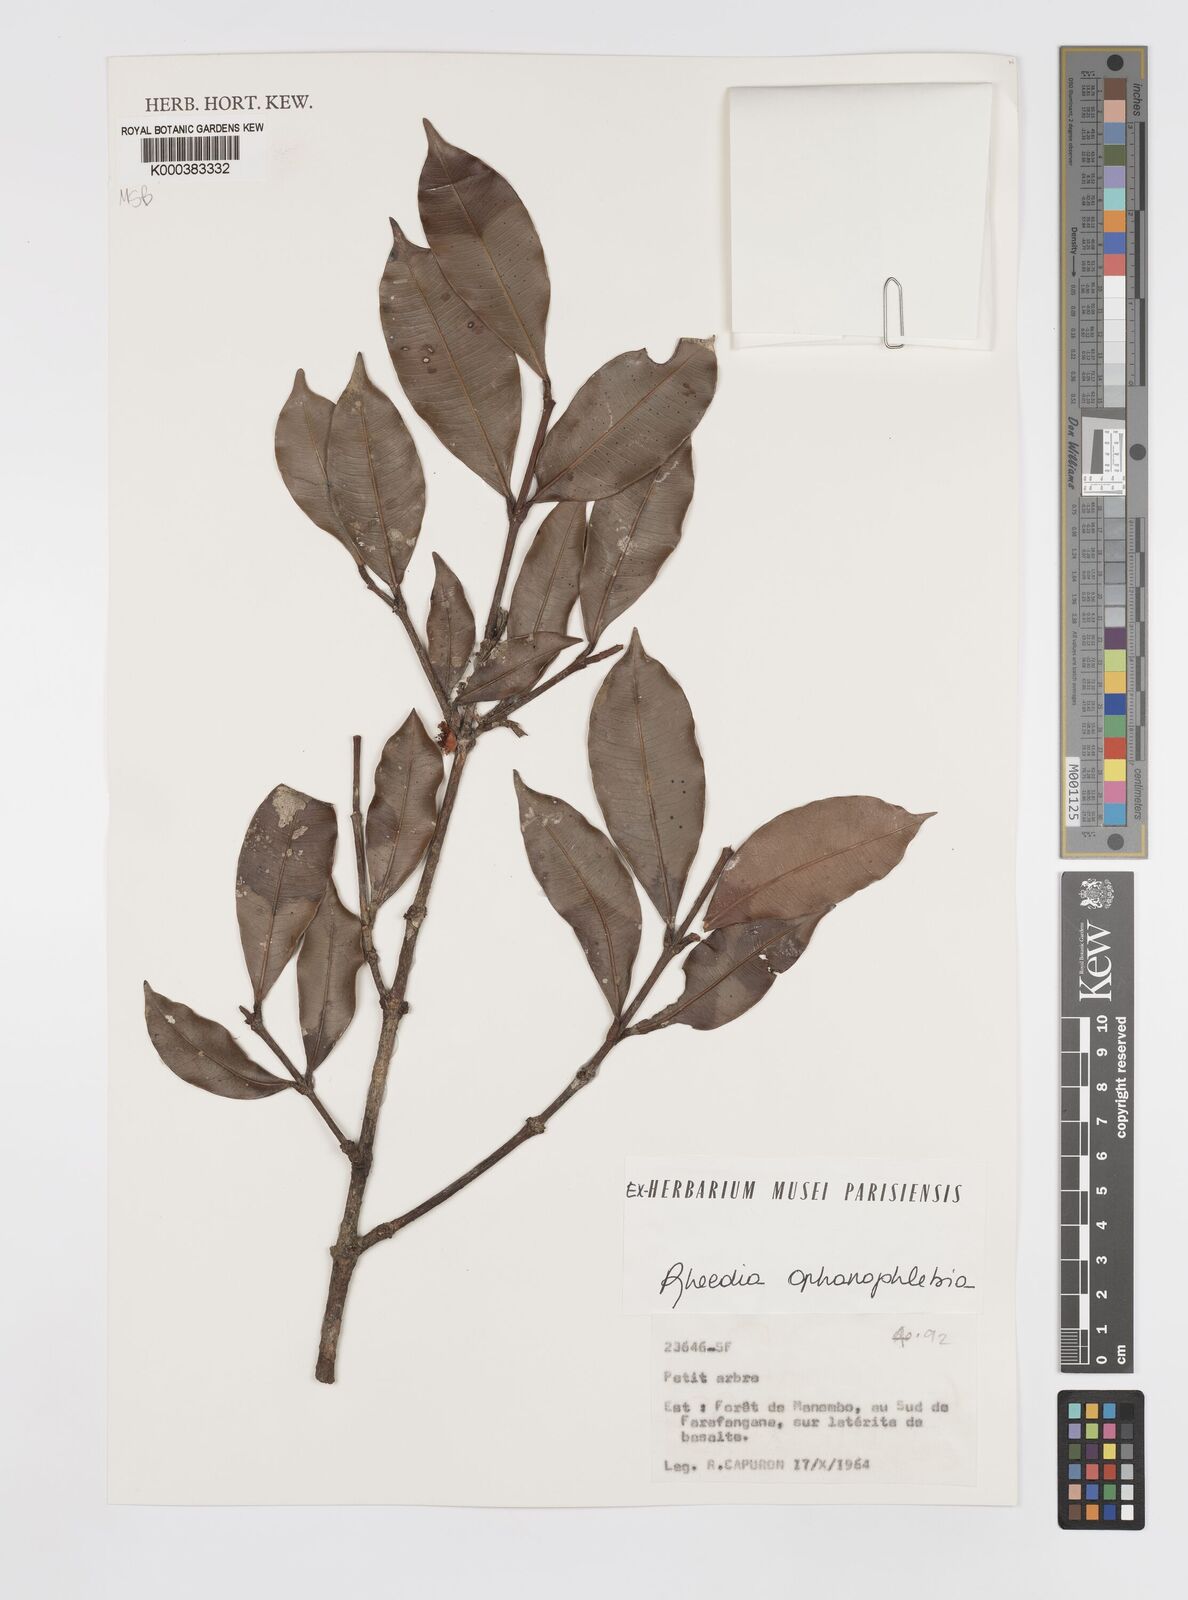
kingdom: Plantae
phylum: Tracheophyta
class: Magnoliopsida
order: Malpighiales
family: Clusiaceae
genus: Garcinia
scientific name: Garcinia
